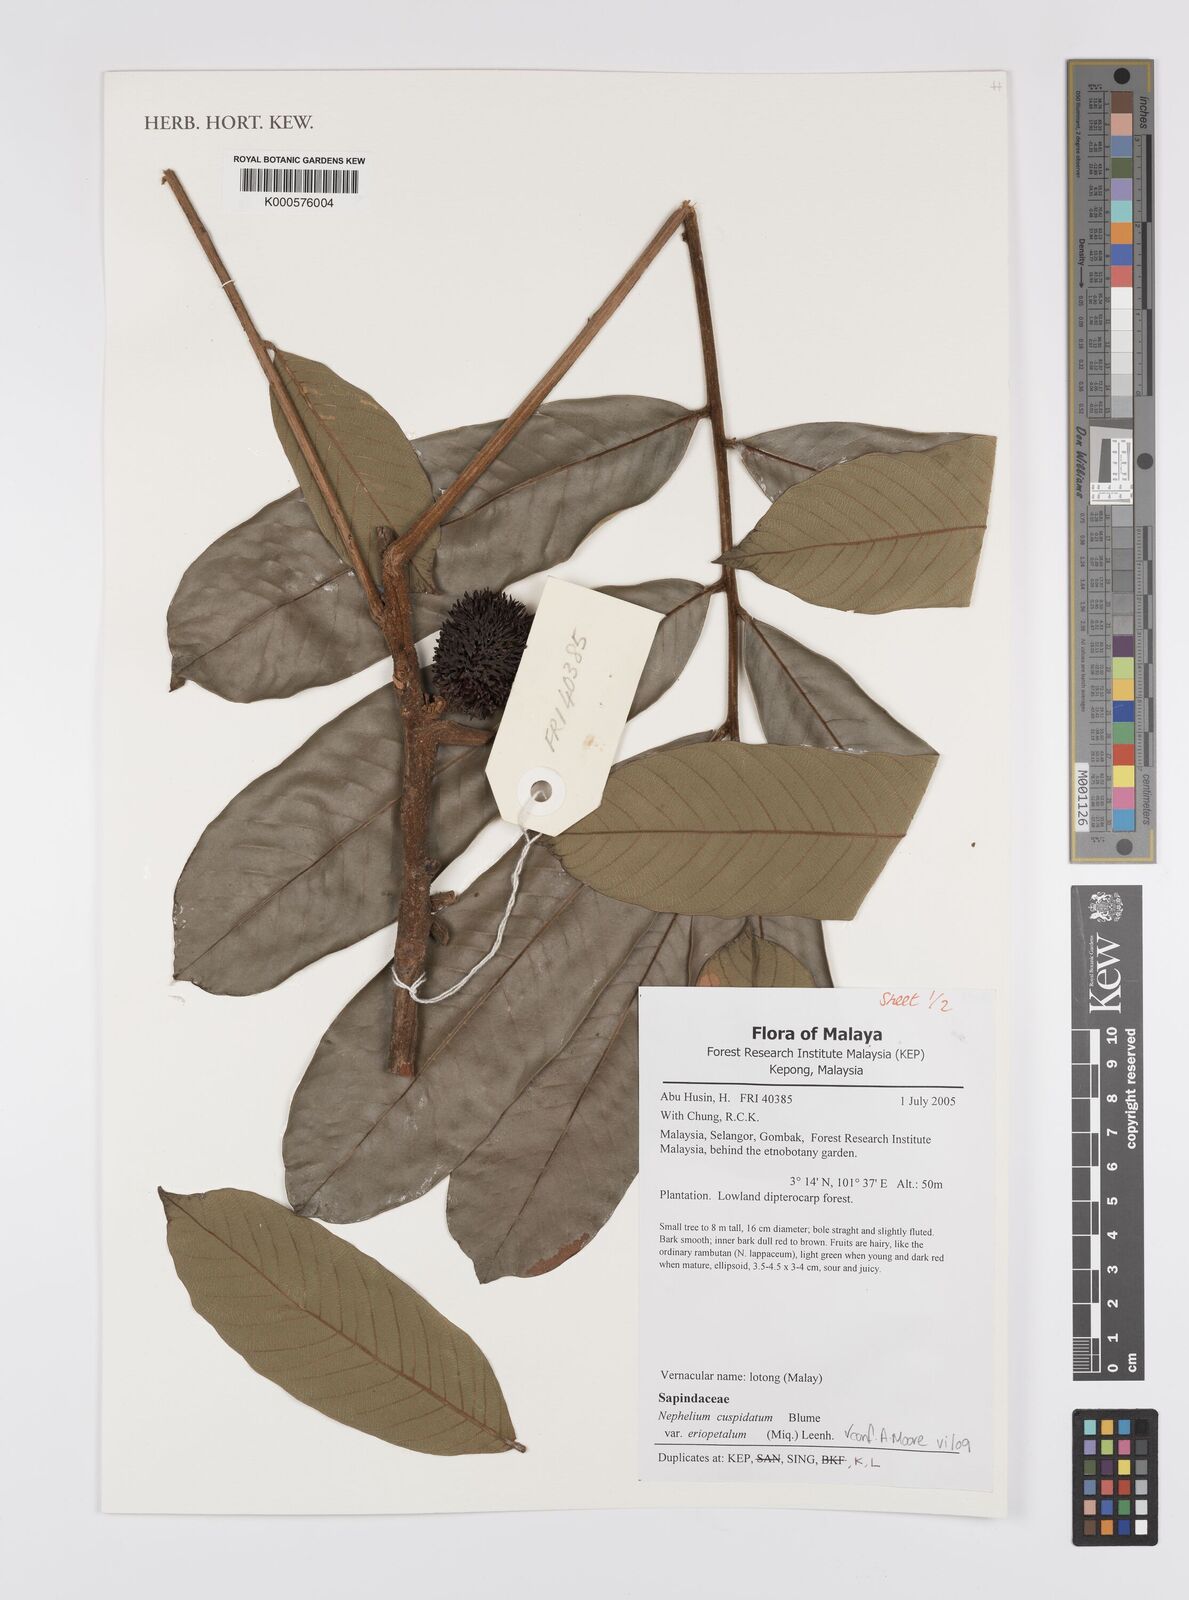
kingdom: Plantae
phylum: Tracheophyta
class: Magnoliopsida
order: Sapindales
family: Sapindaceae
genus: Nephelium
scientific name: Nephelium cuspidatum
